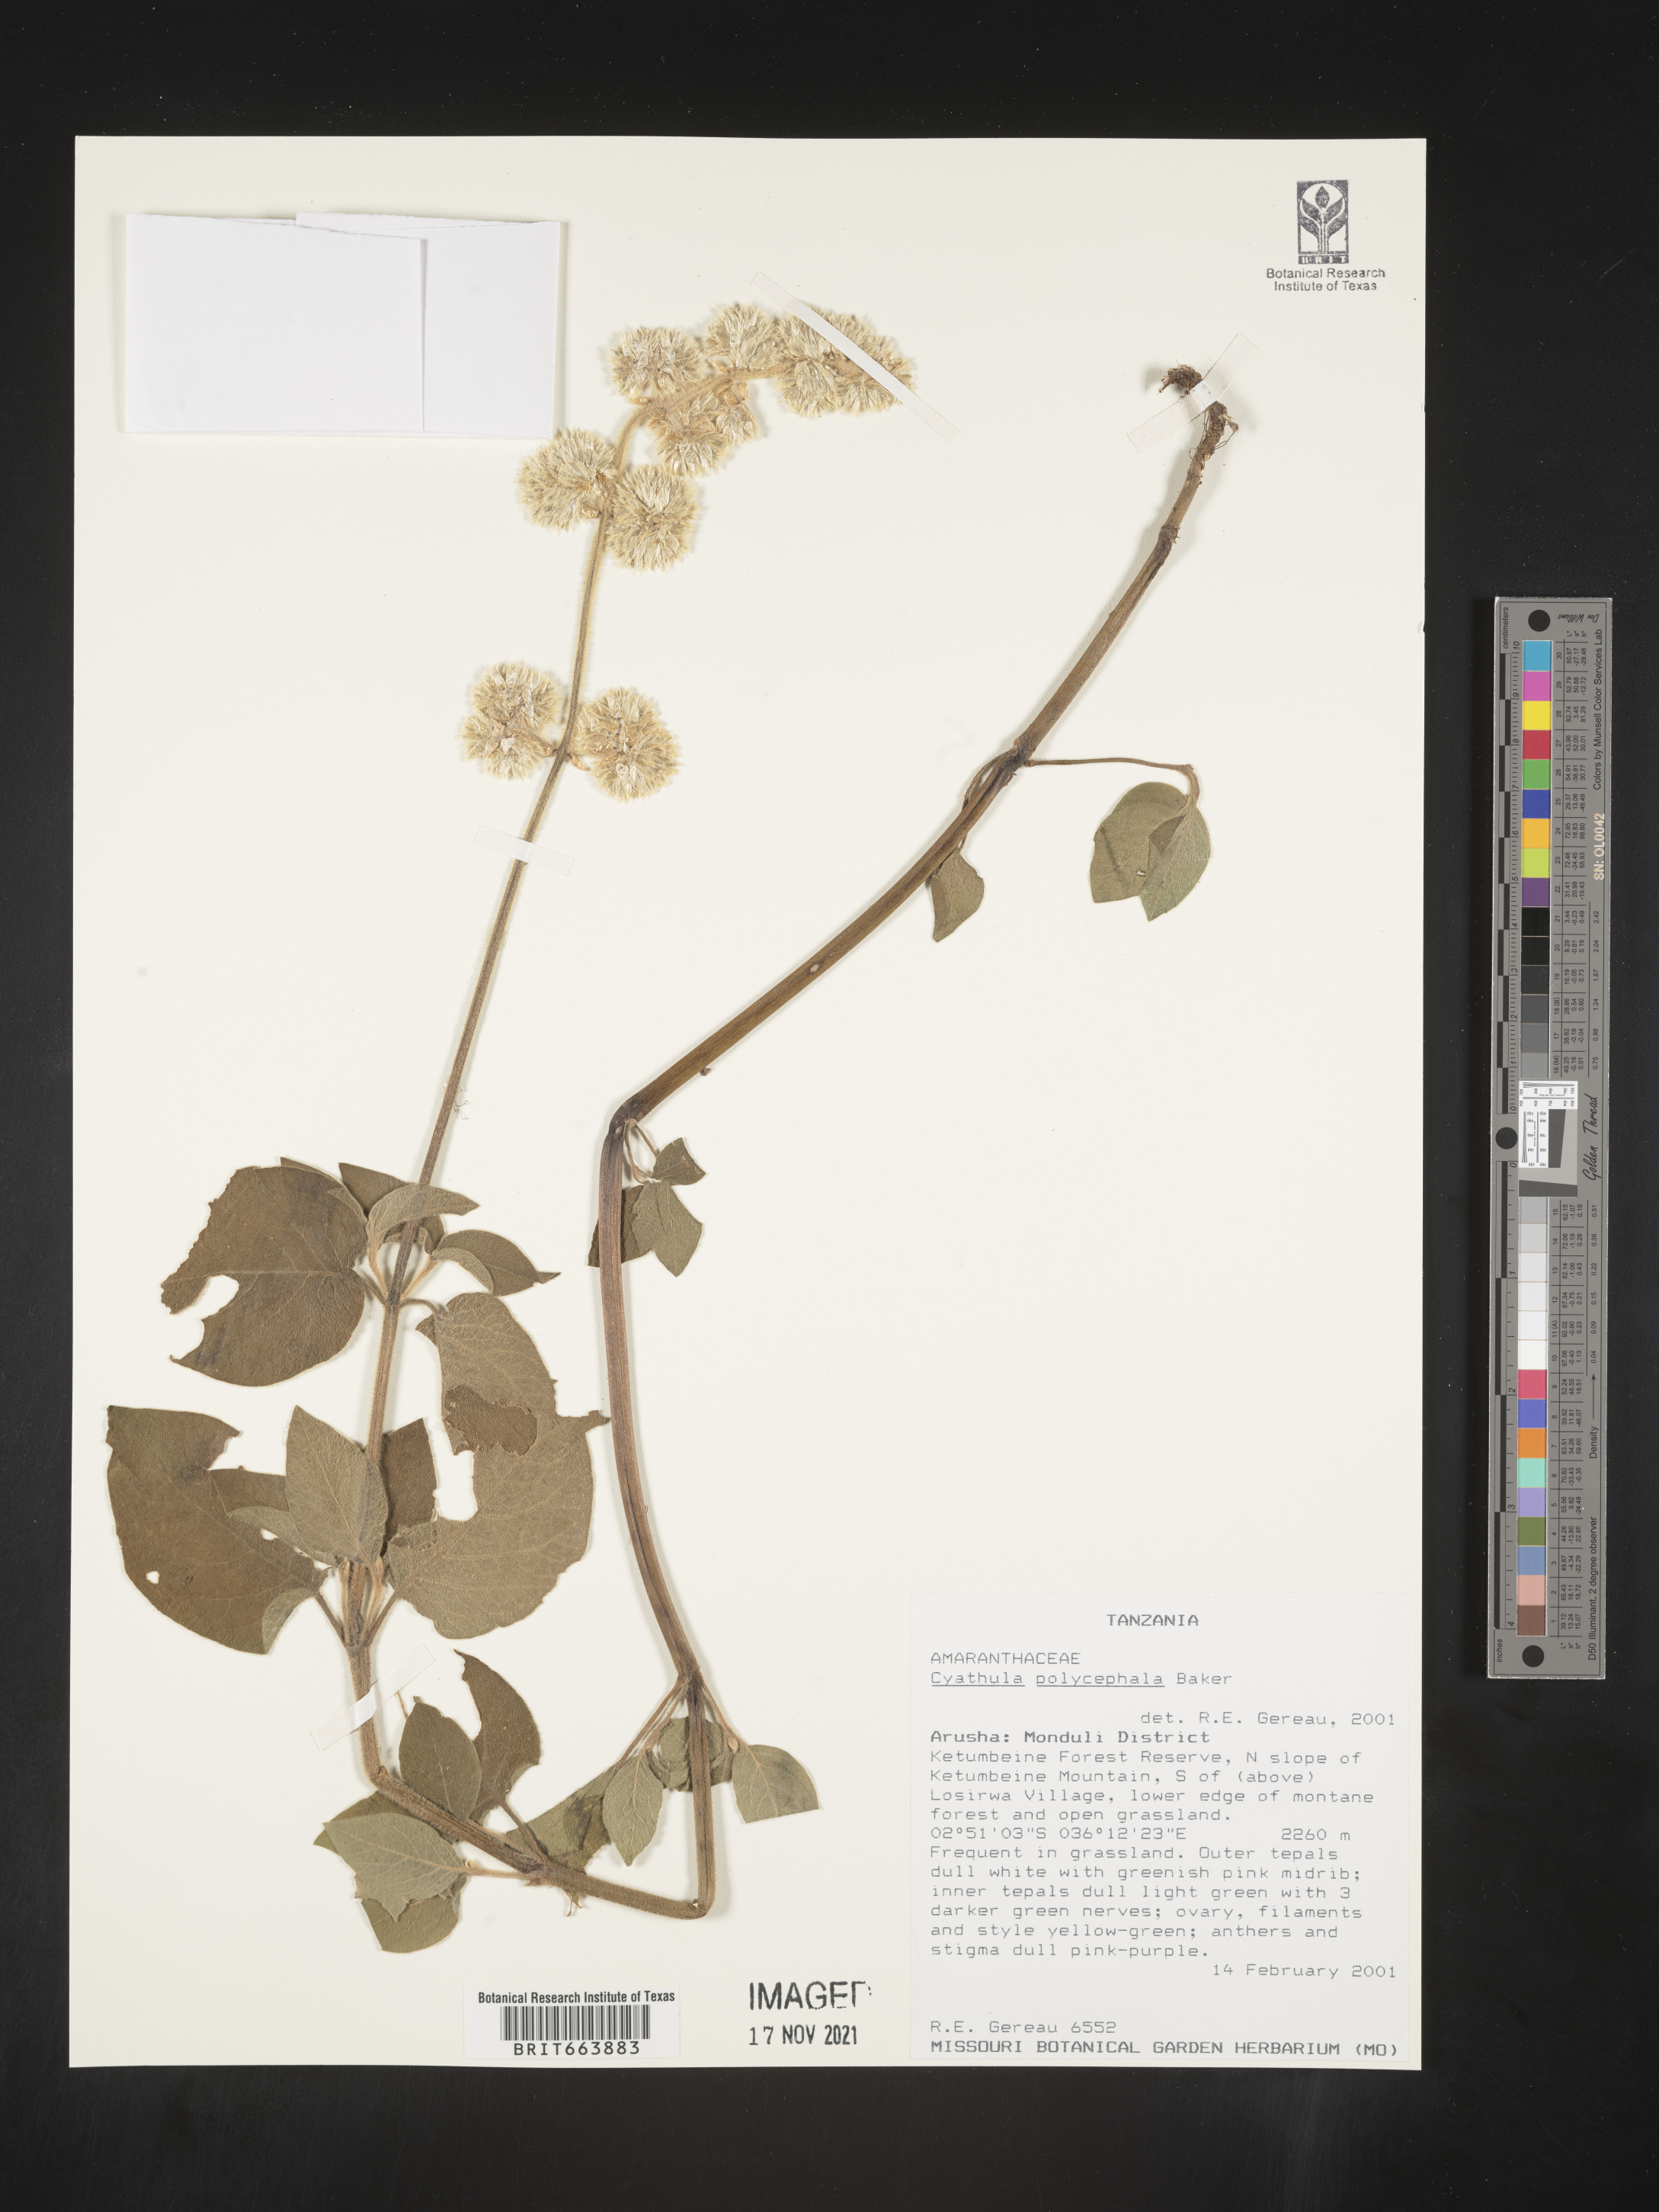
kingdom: Plantae
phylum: Tracheophyta
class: Magnoliopsida
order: Caryophyllales
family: Amaranthaceae
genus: Cyathula
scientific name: Cyathula
